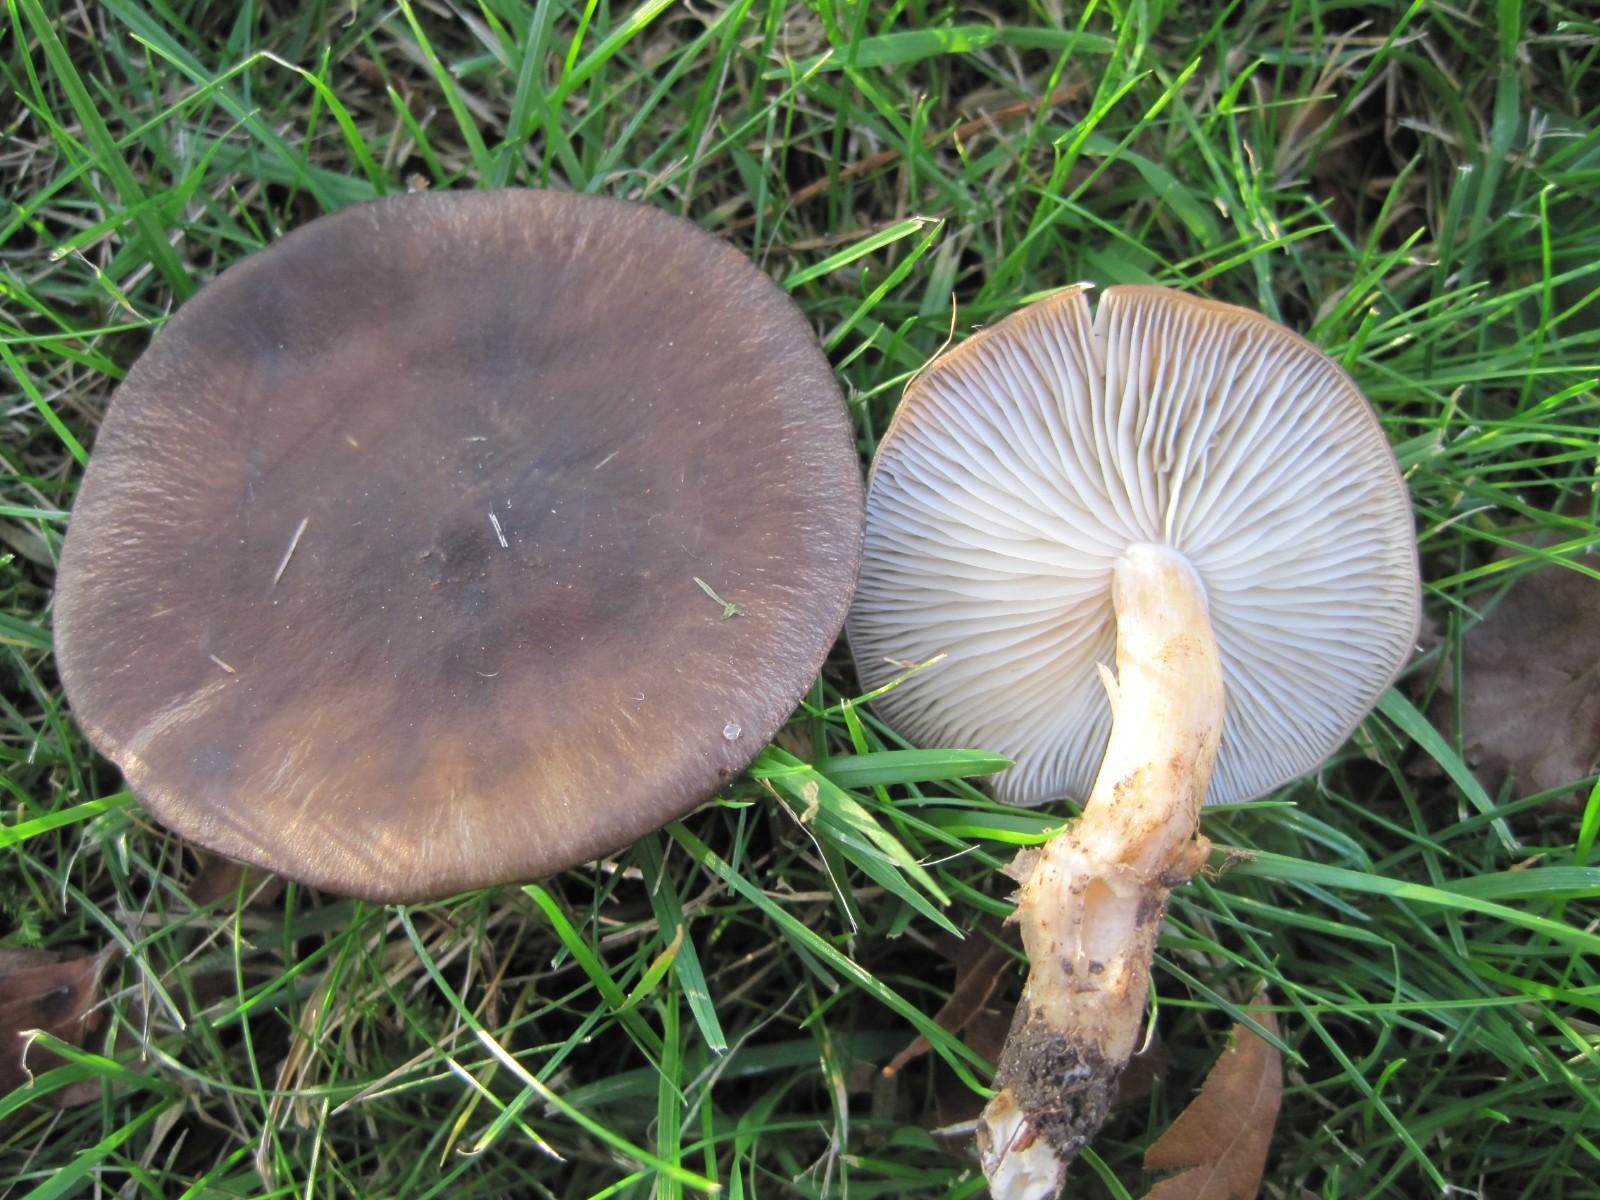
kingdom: Fungi
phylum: Basidiomycota
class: Agaricomycetes
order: Agaricales
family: Lyophyllaceae
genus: Lyophyllum
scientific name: Lyophyllum decastes
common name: Clustered domecap
